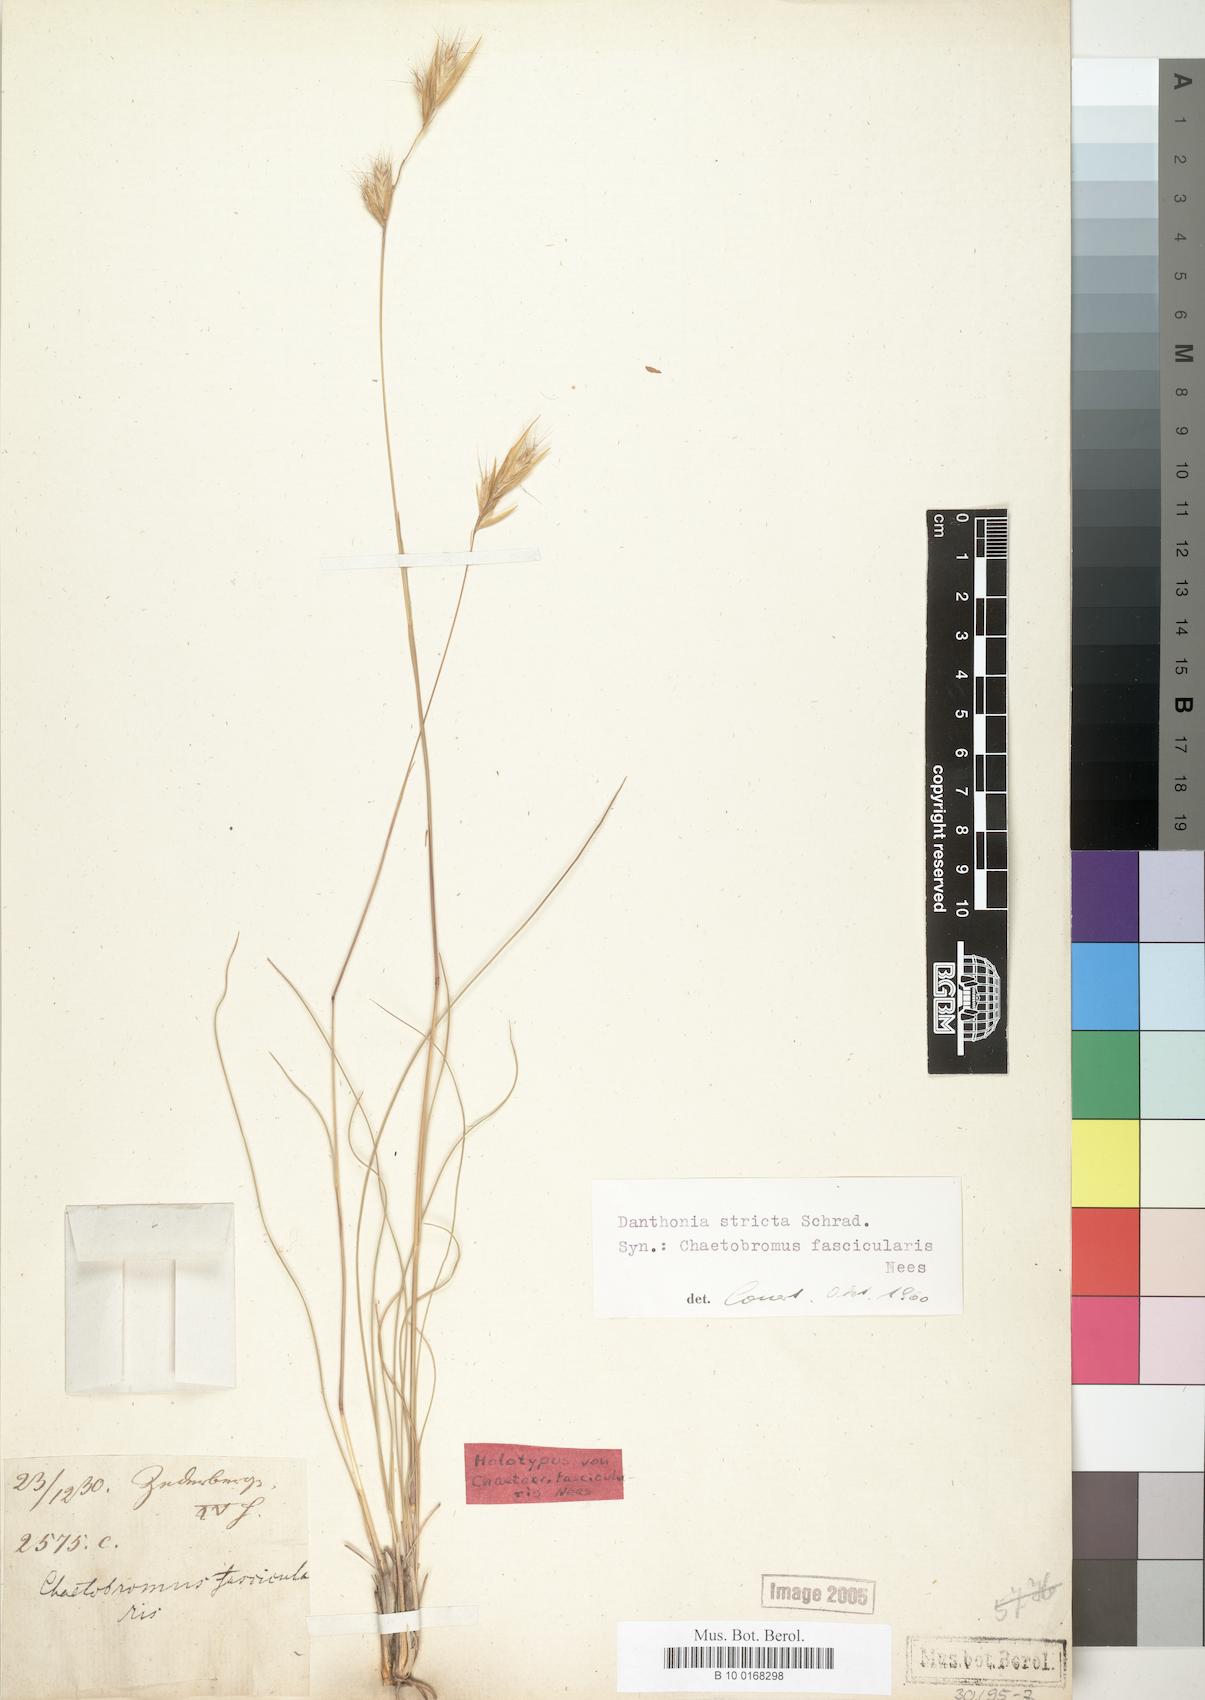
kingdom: Plantae
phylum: Tracheophyta
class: Liliopsida
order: Poales
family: Poaceae
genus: Tenaxia
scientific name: Tenaxia stricta
